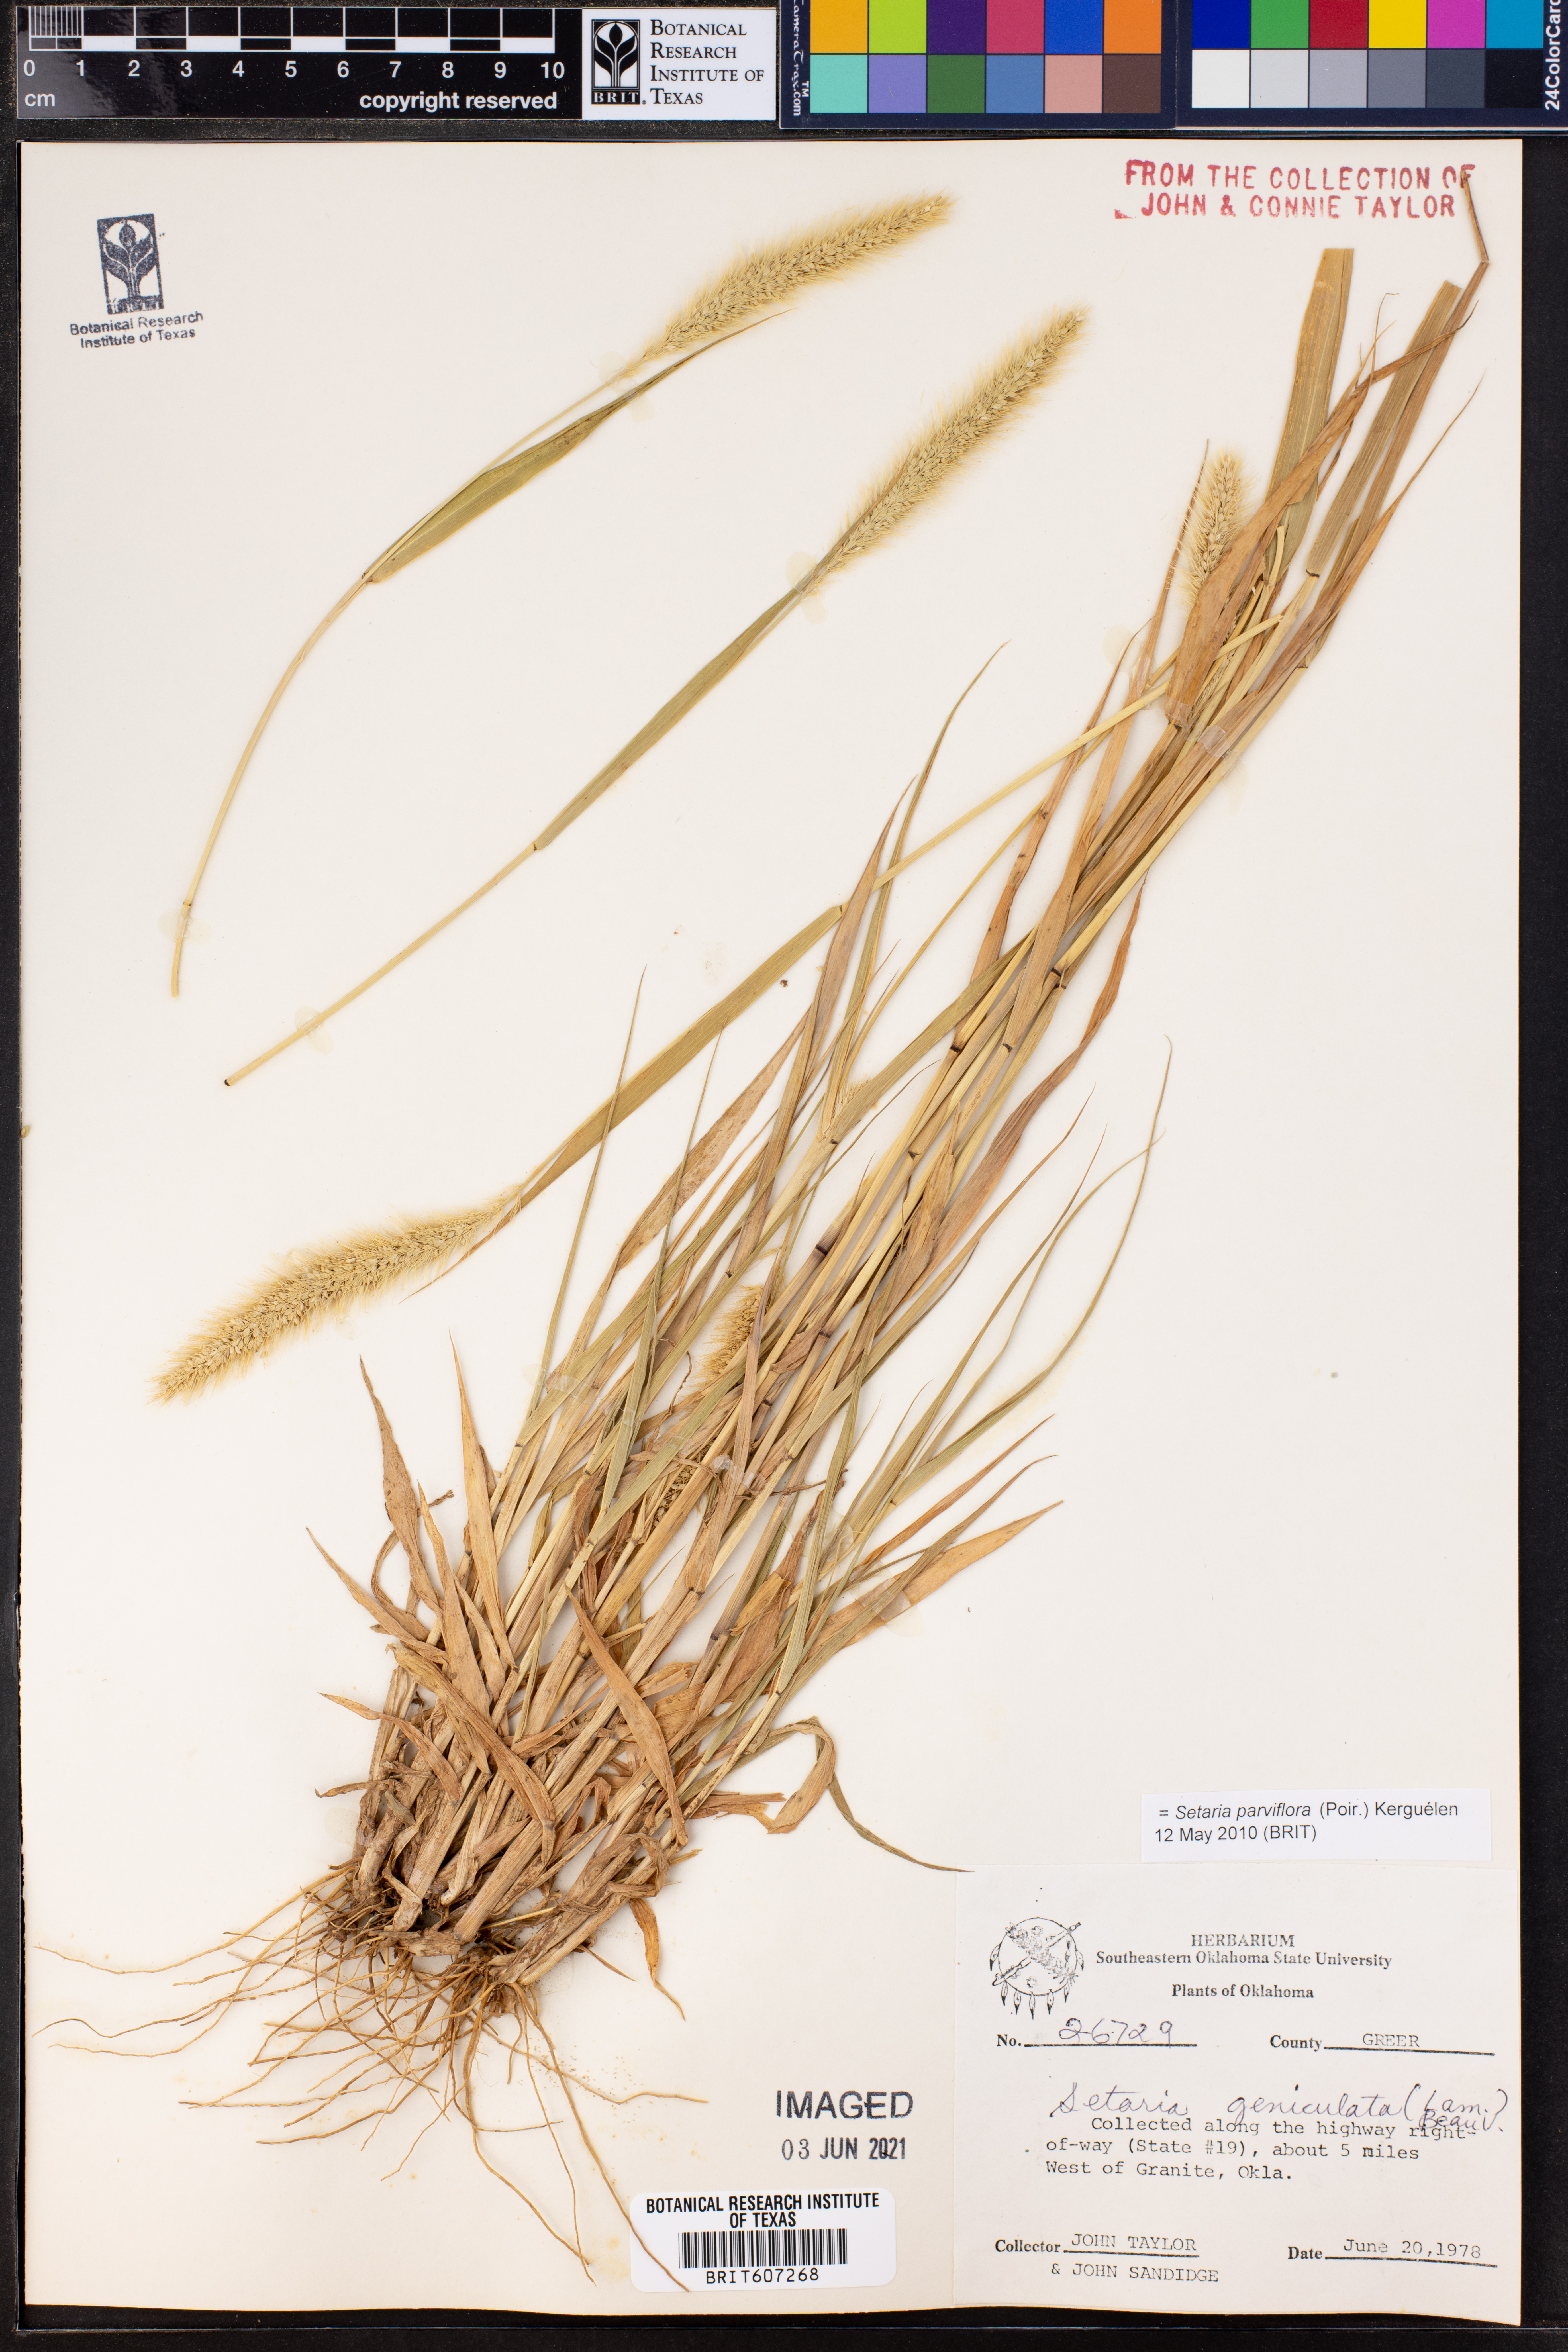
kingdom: Plantae
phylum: Tracheophyta
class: Liliopsida
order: Poales
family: Poaceae
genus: Setaria
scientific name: Setaria parviflora
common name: Knotroot bristle-grass
